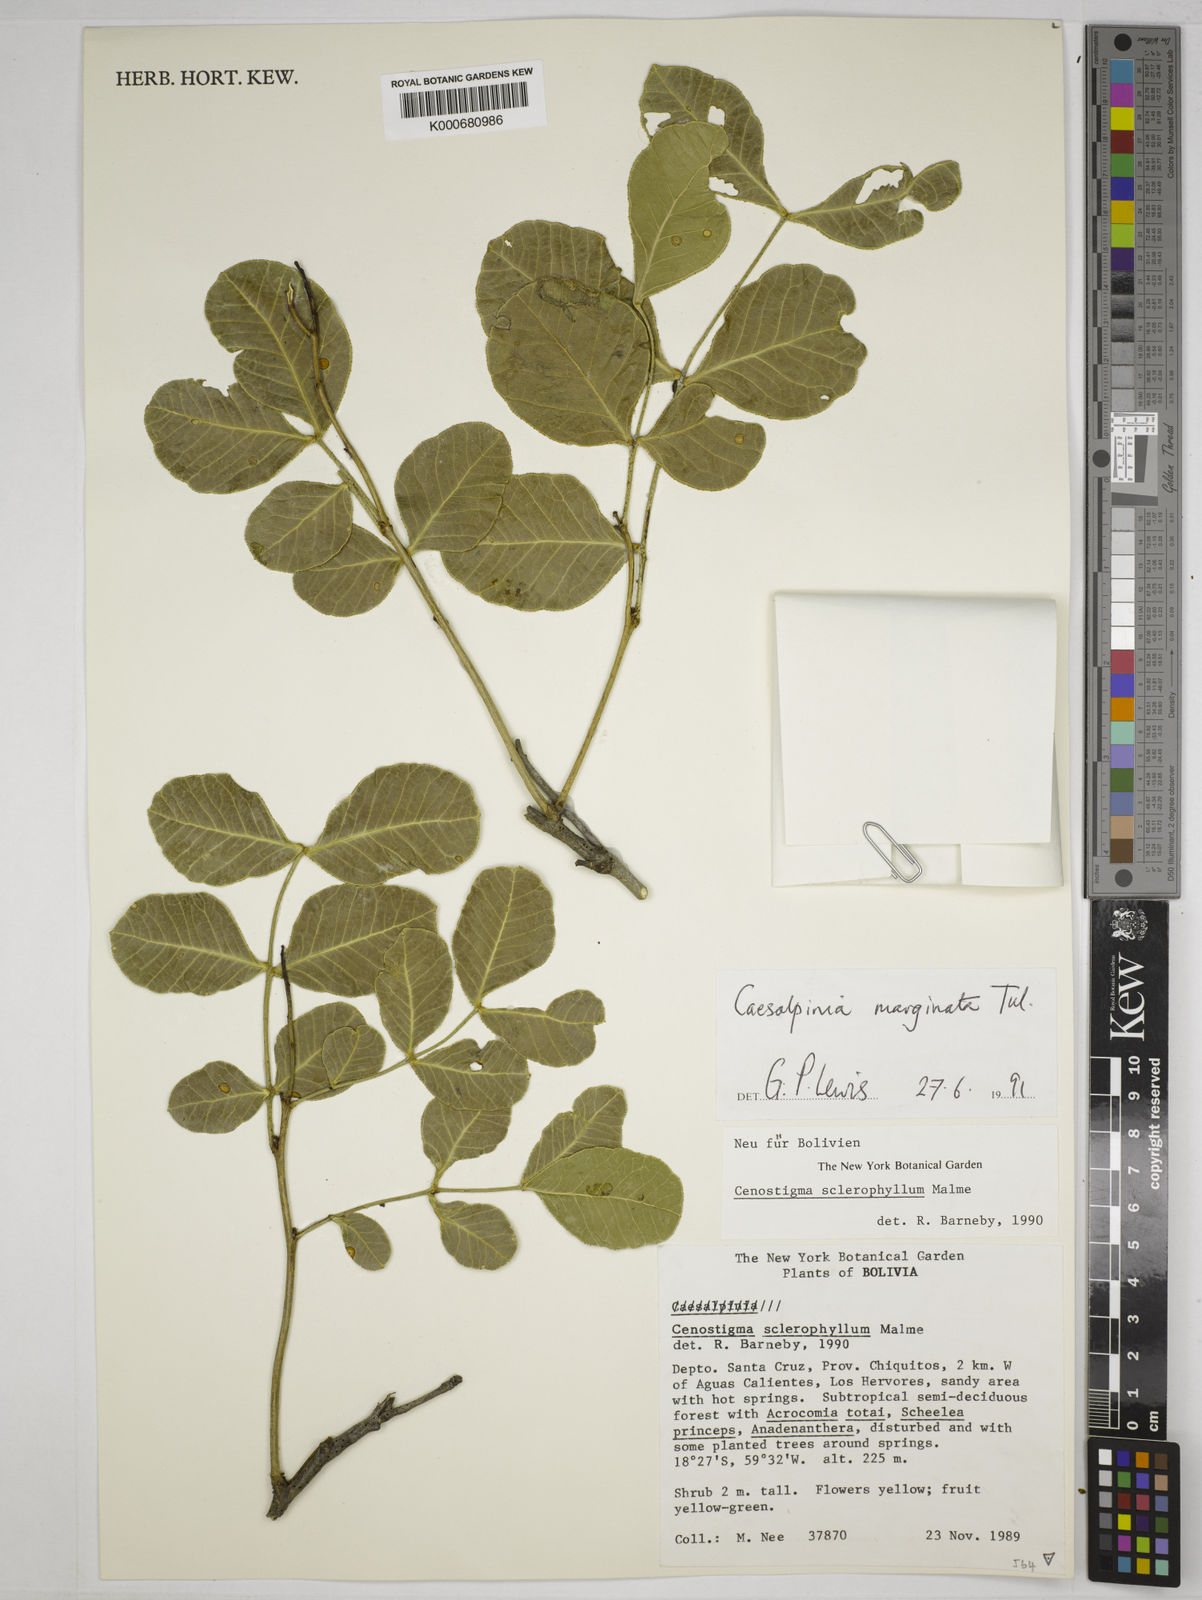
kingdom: Plantae
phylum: Tracheophyta
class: Magnoliopsida
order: Fabales
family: Fabaceae
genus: Cenostigma
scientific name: Cenostigma marginatum
